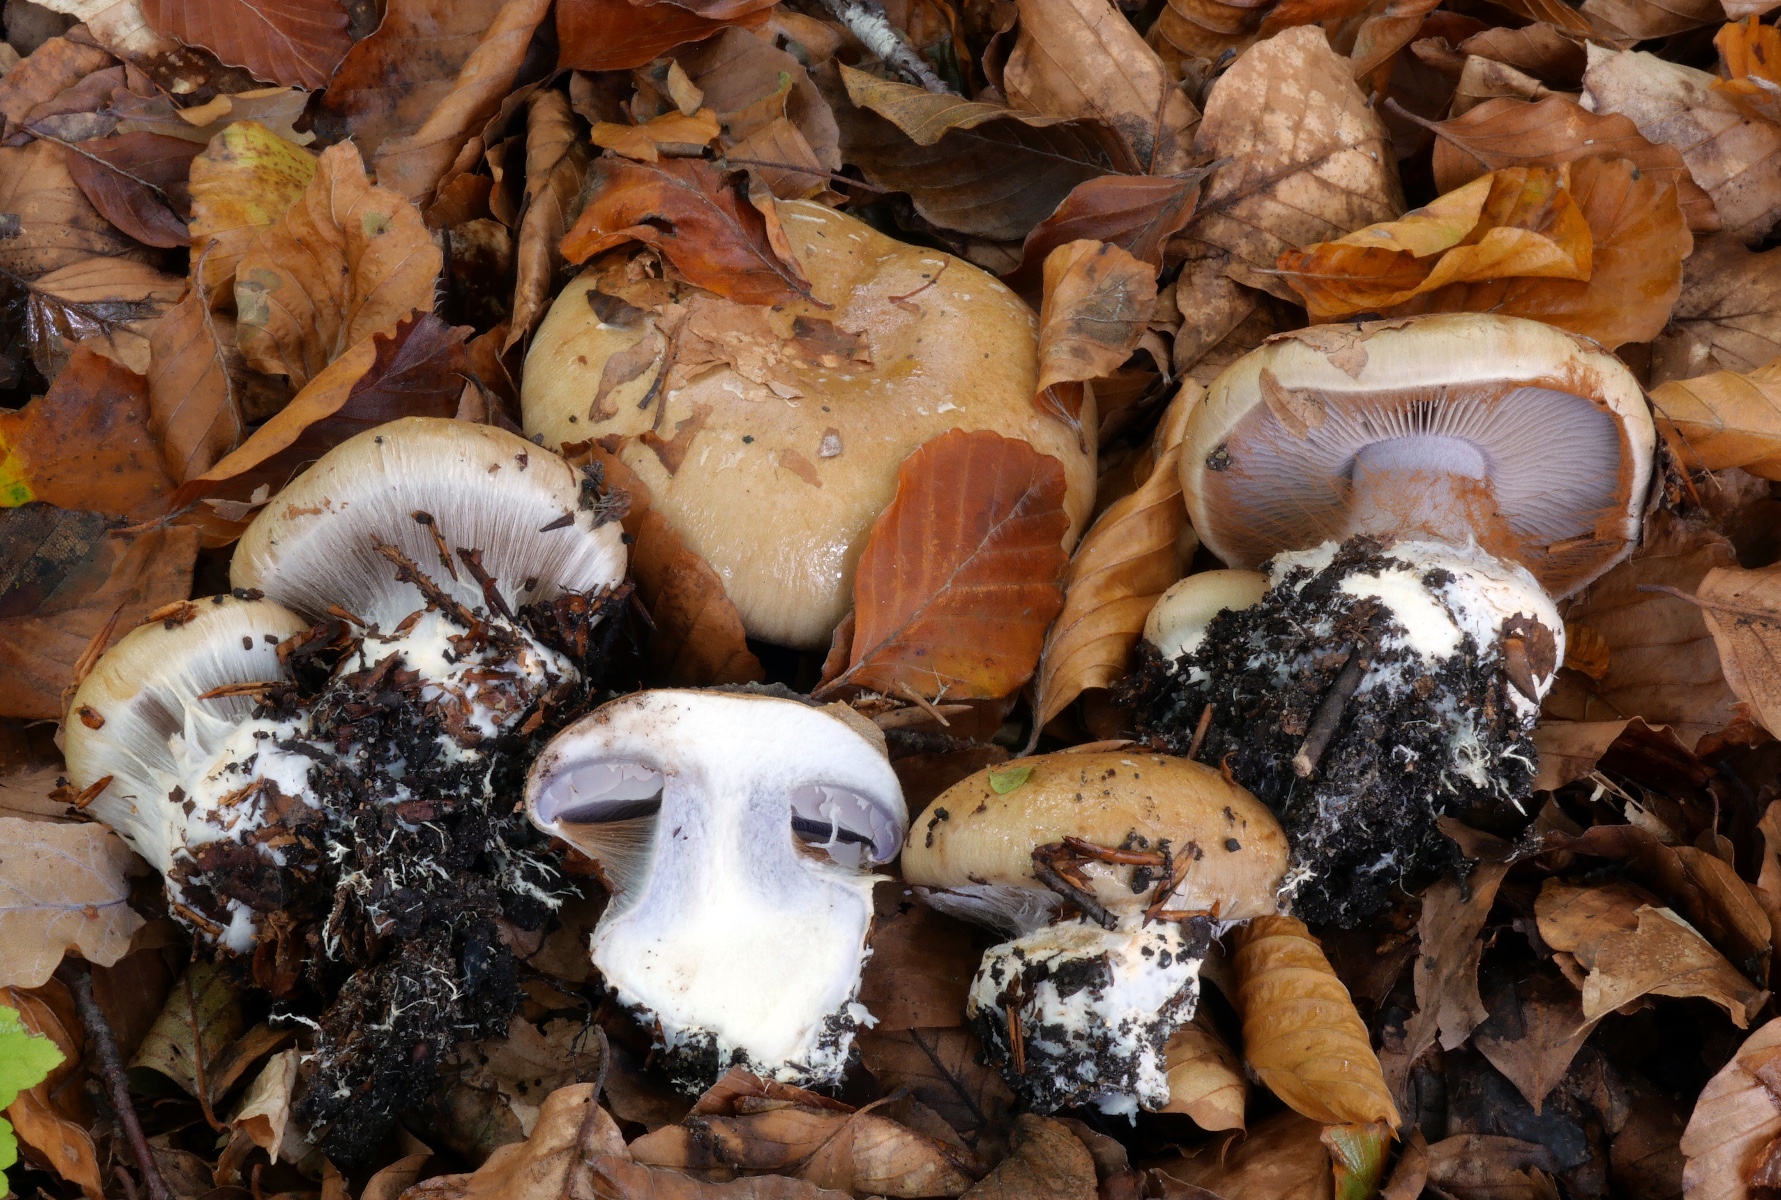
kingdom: Fungi
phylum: Basidiomycota
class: Agaricomycetes
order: Agaricales
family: Cortinariaceae
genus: Cortinarius
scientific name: Cortinarius anserinus
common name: bøge-slørhat
